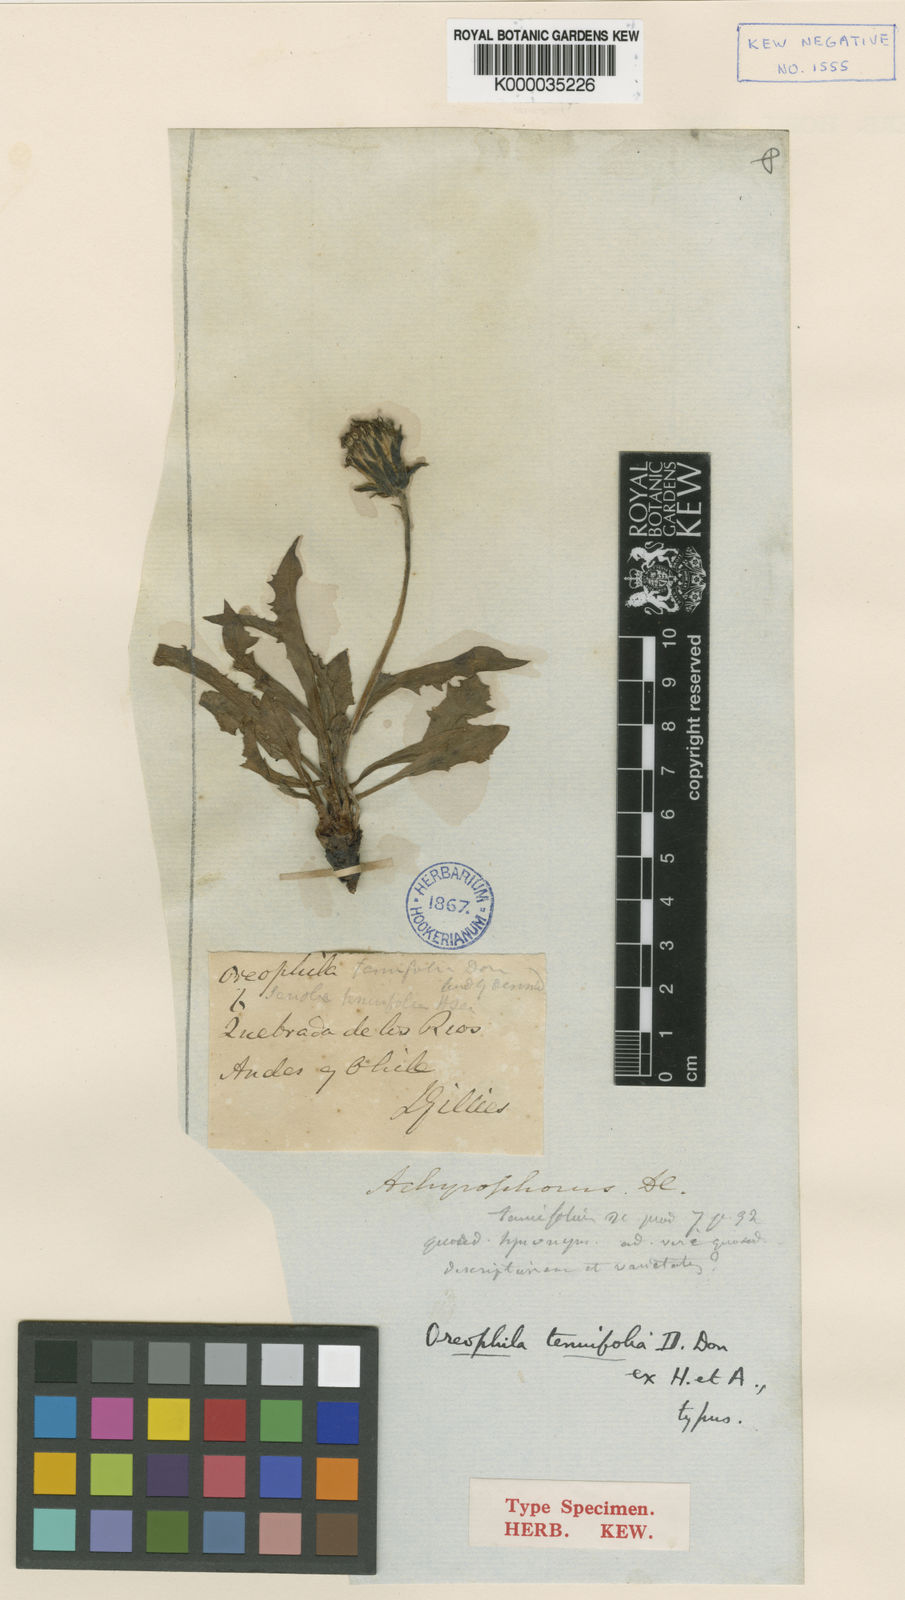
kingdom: Plantae
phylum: Tracheophyta
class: Magnoliopsida
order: Asterales
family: Asteraceae
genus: Hypochaeris
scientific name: Hypochaeris tenuifolia
